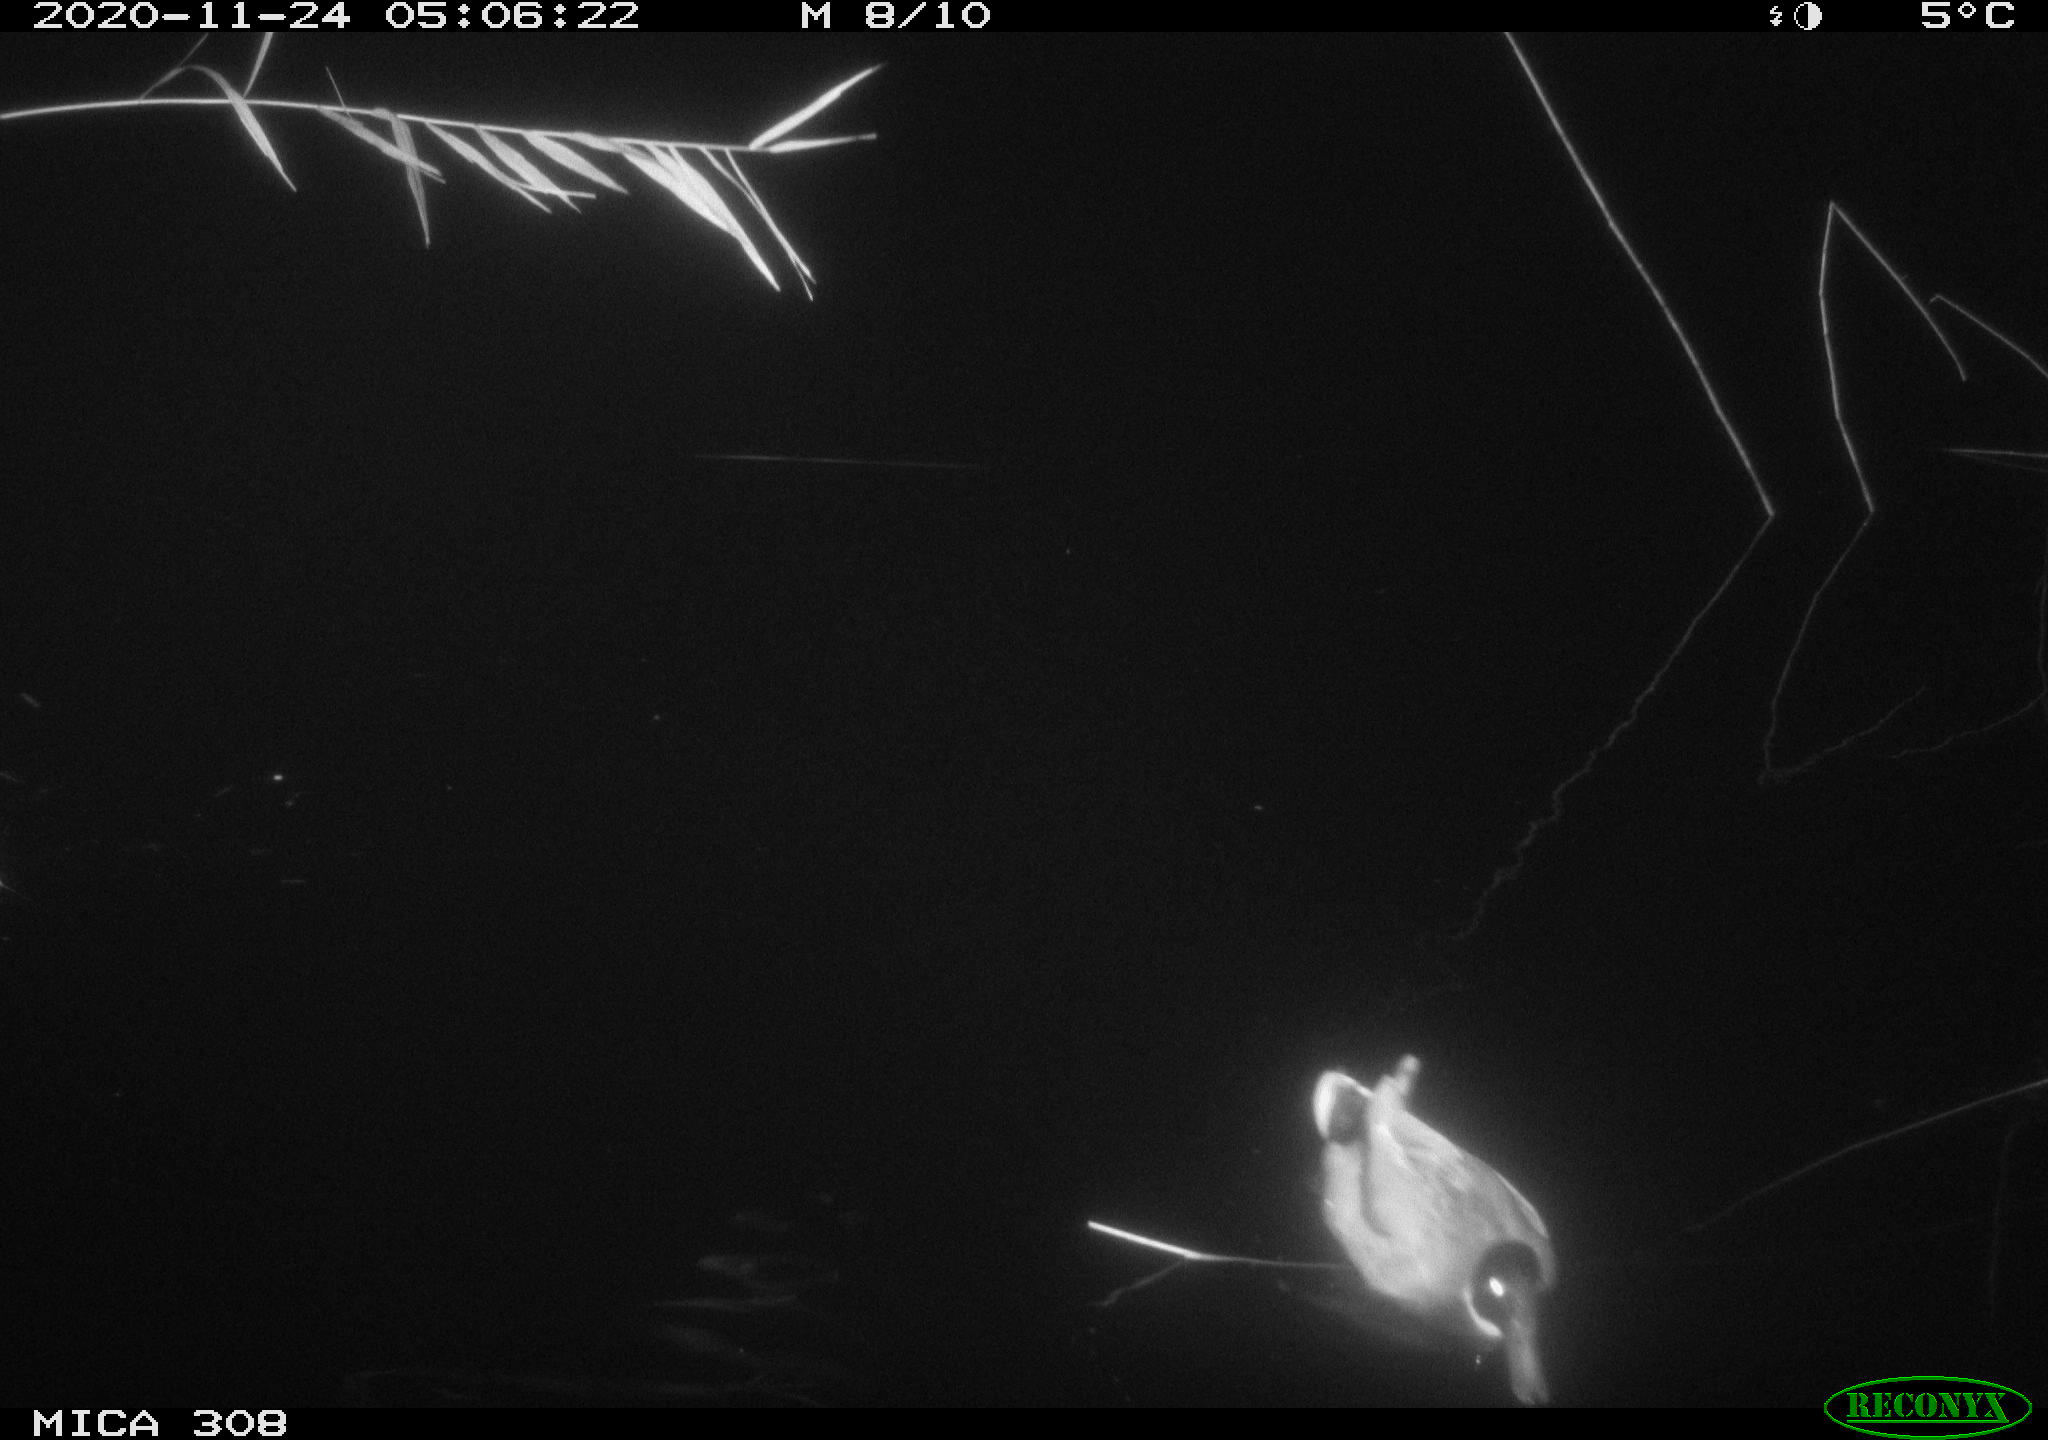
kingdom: Animalia
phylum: Chordata
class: Aves
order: Gruiformes
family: Rallidae
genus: Gallinula
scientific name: Gallinula chloropus
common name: Common moorhen
